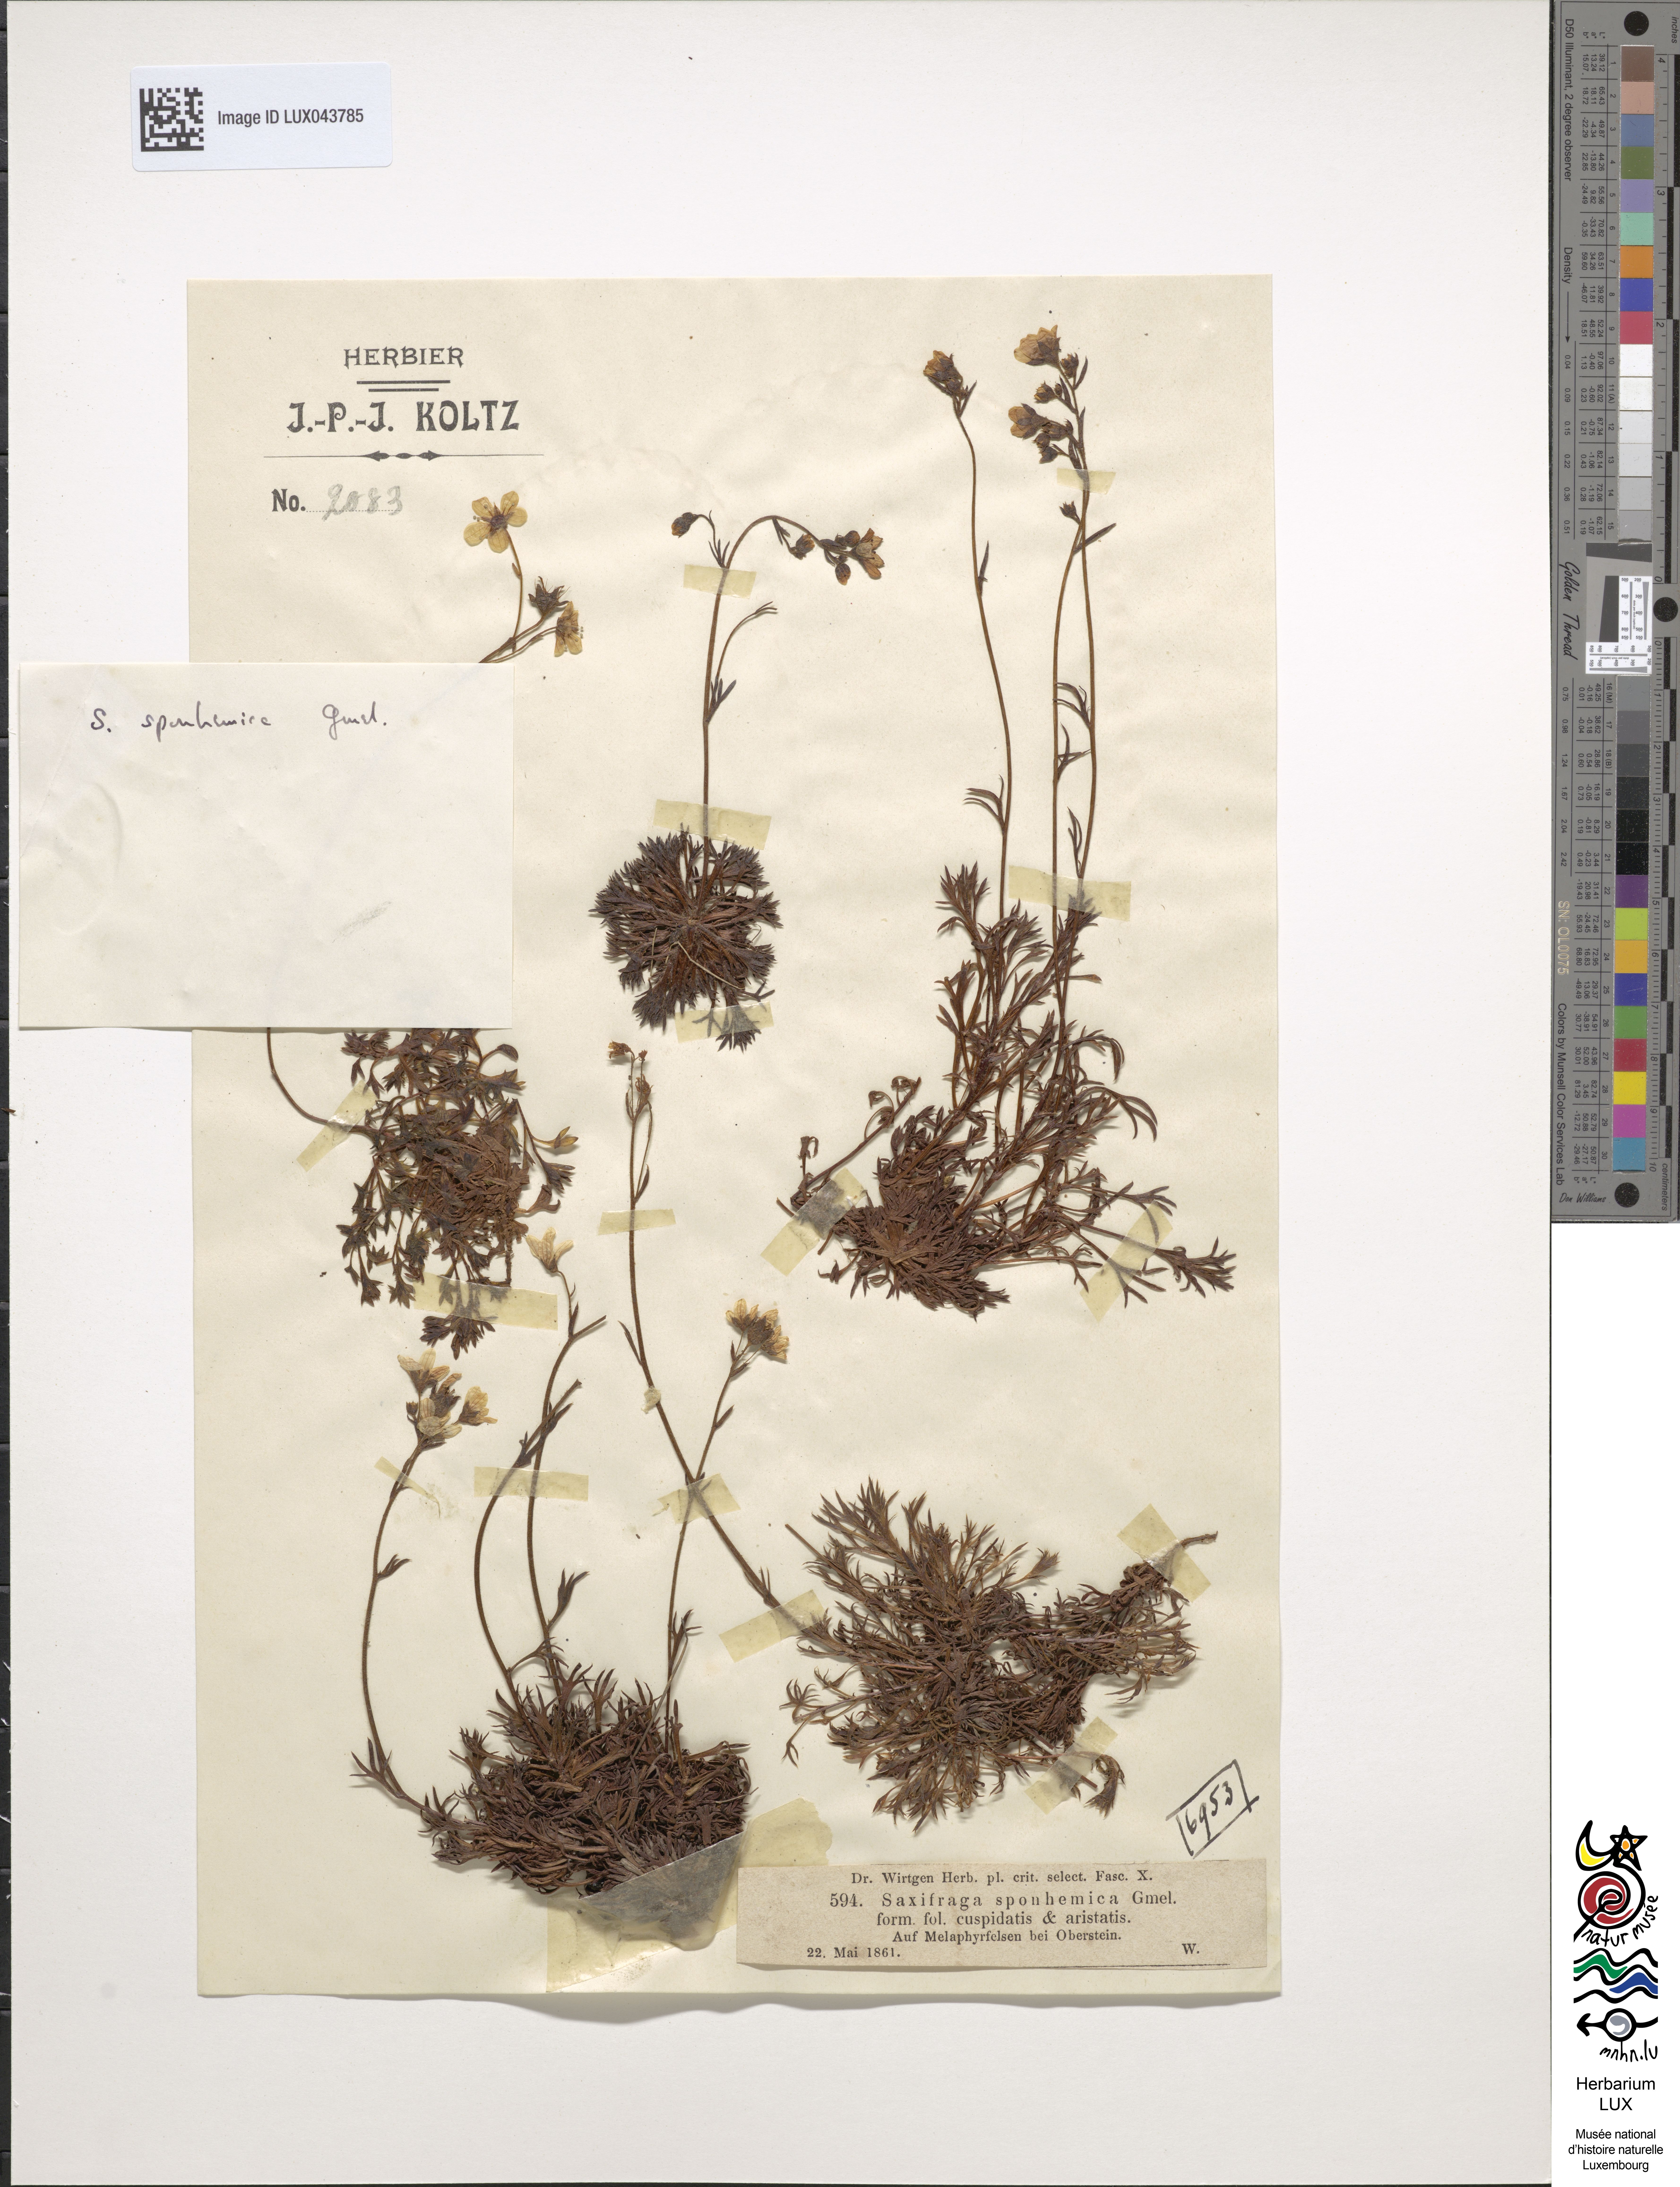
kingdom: Plantae
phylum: Tracheophyta
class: Magnoliopsida
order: Saxifragales
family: Saxifragaceae
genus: Saxifraga
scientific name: Saxifraga
